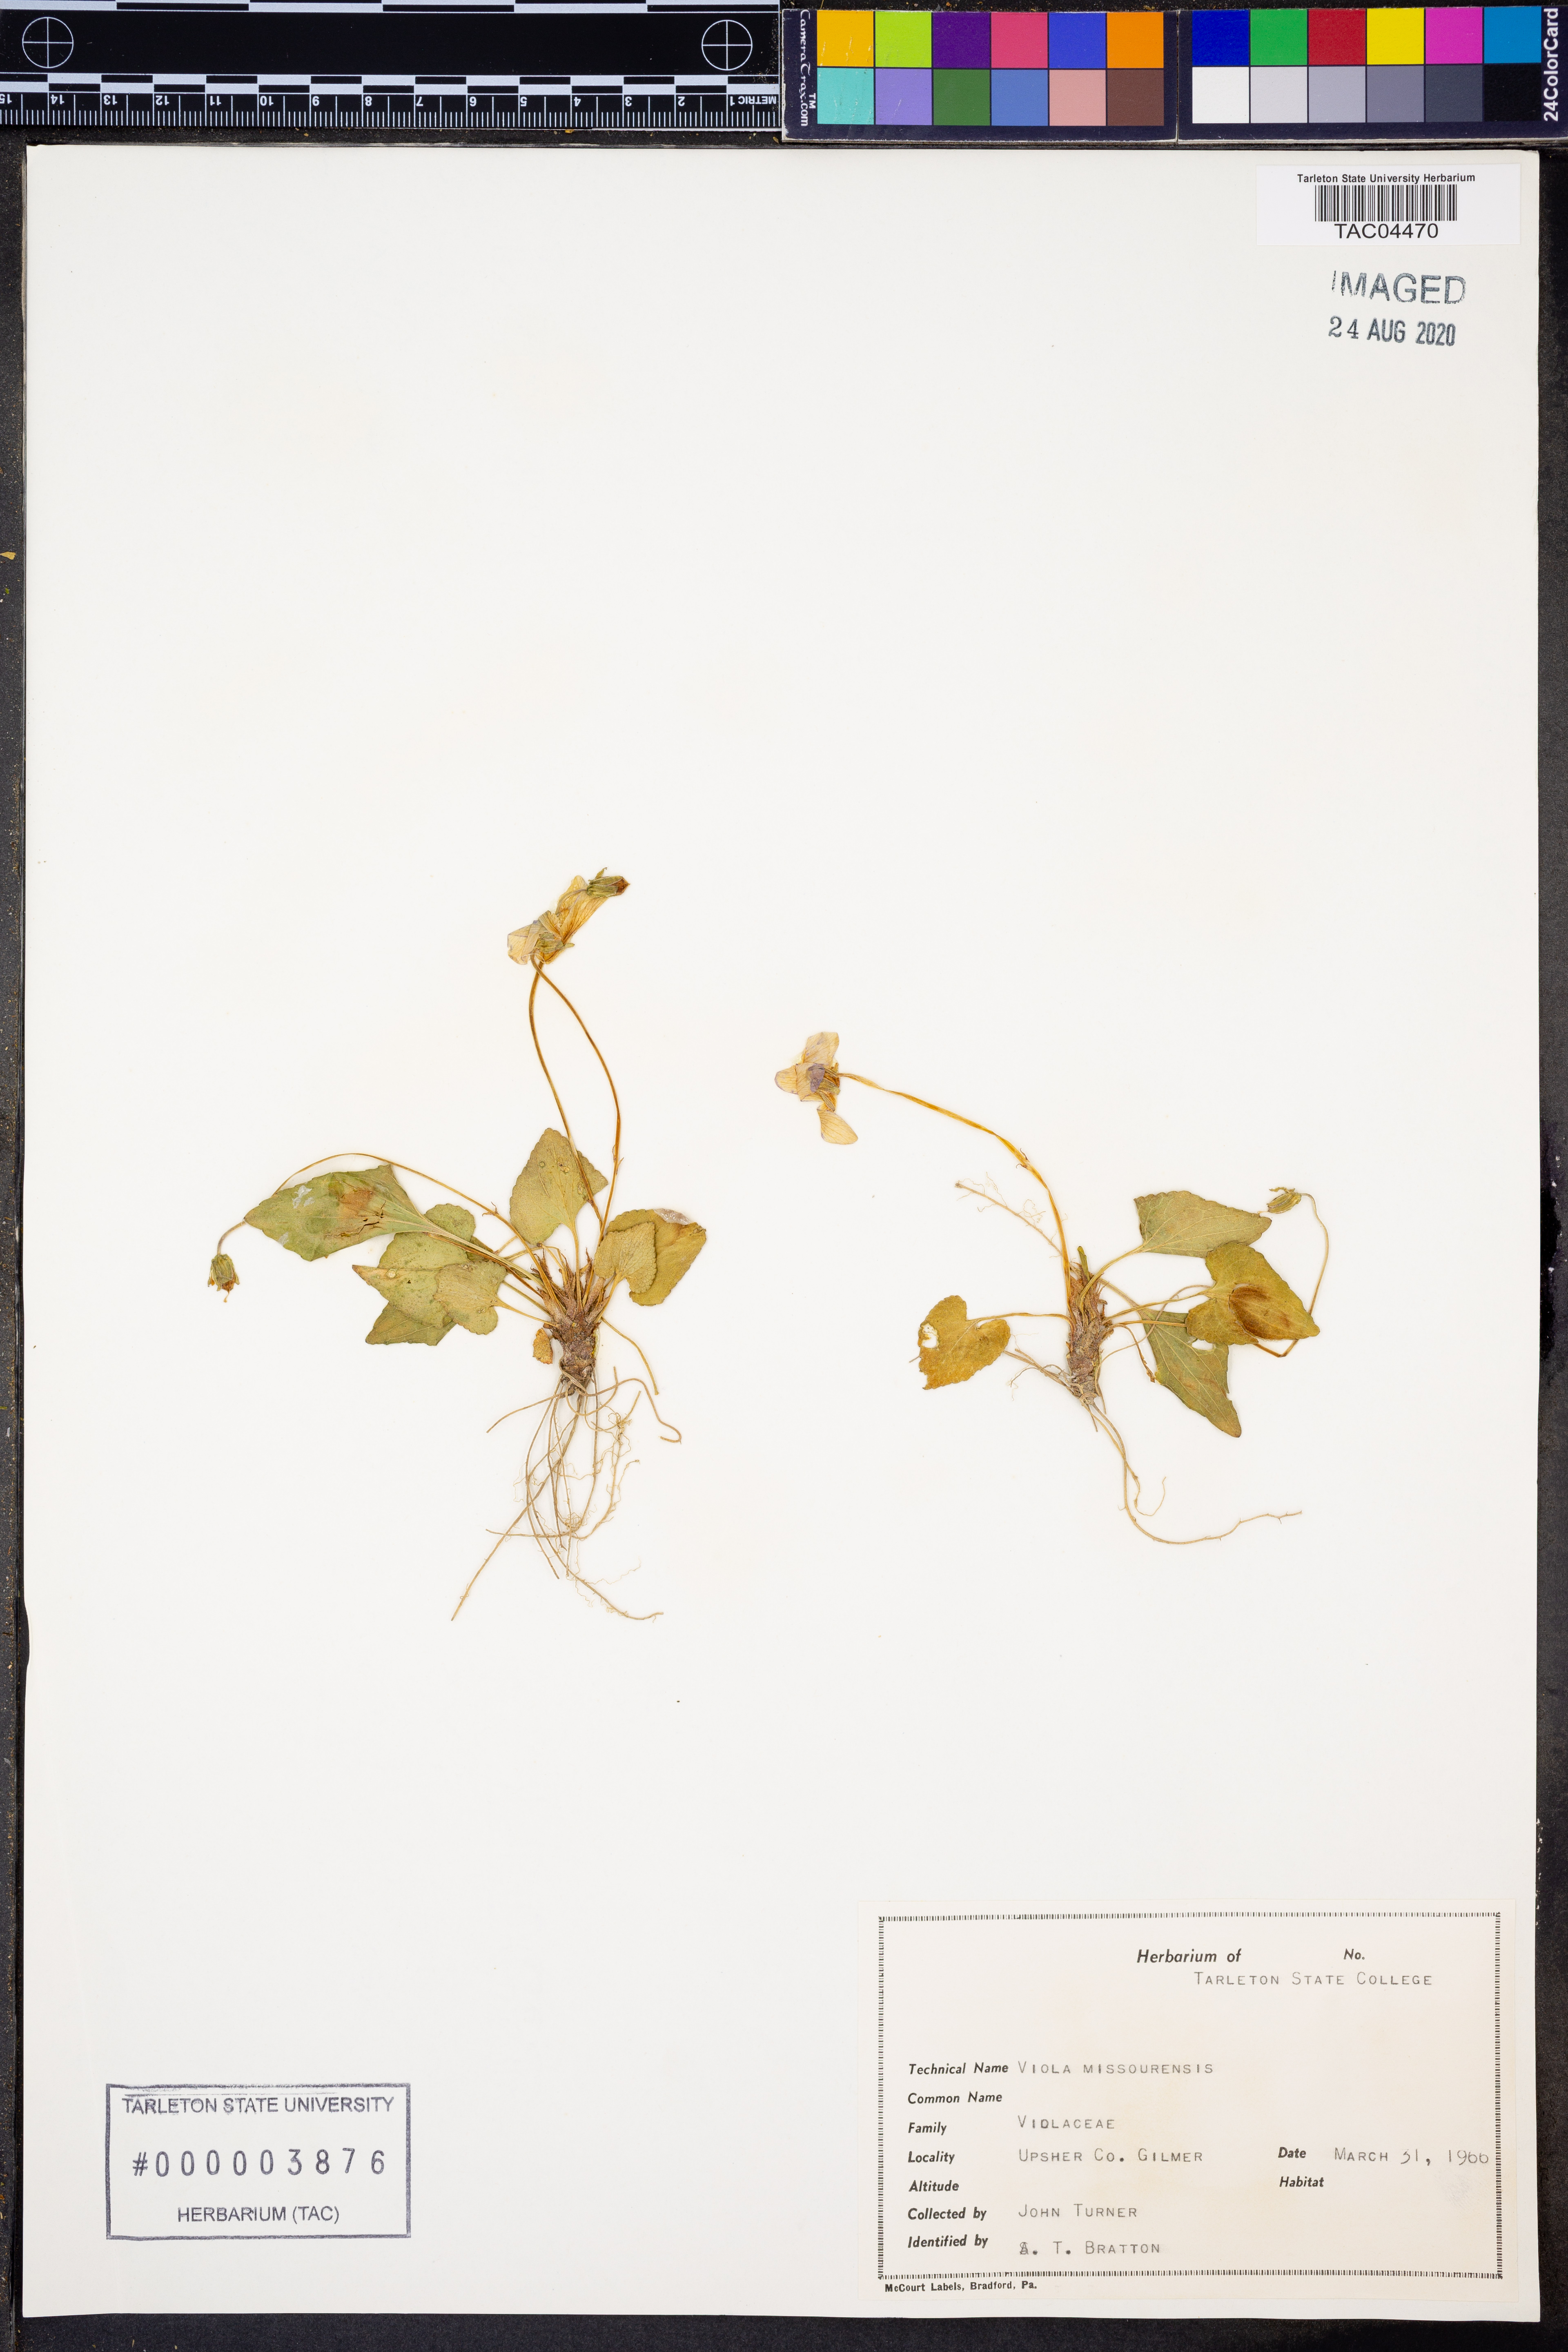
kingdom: Plantae
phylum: Tracheophyta
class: Magnoliopsida
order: Malpighiales
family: Violaceae
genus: Viola
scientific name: Viola missouriensis
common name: Missouri violet
